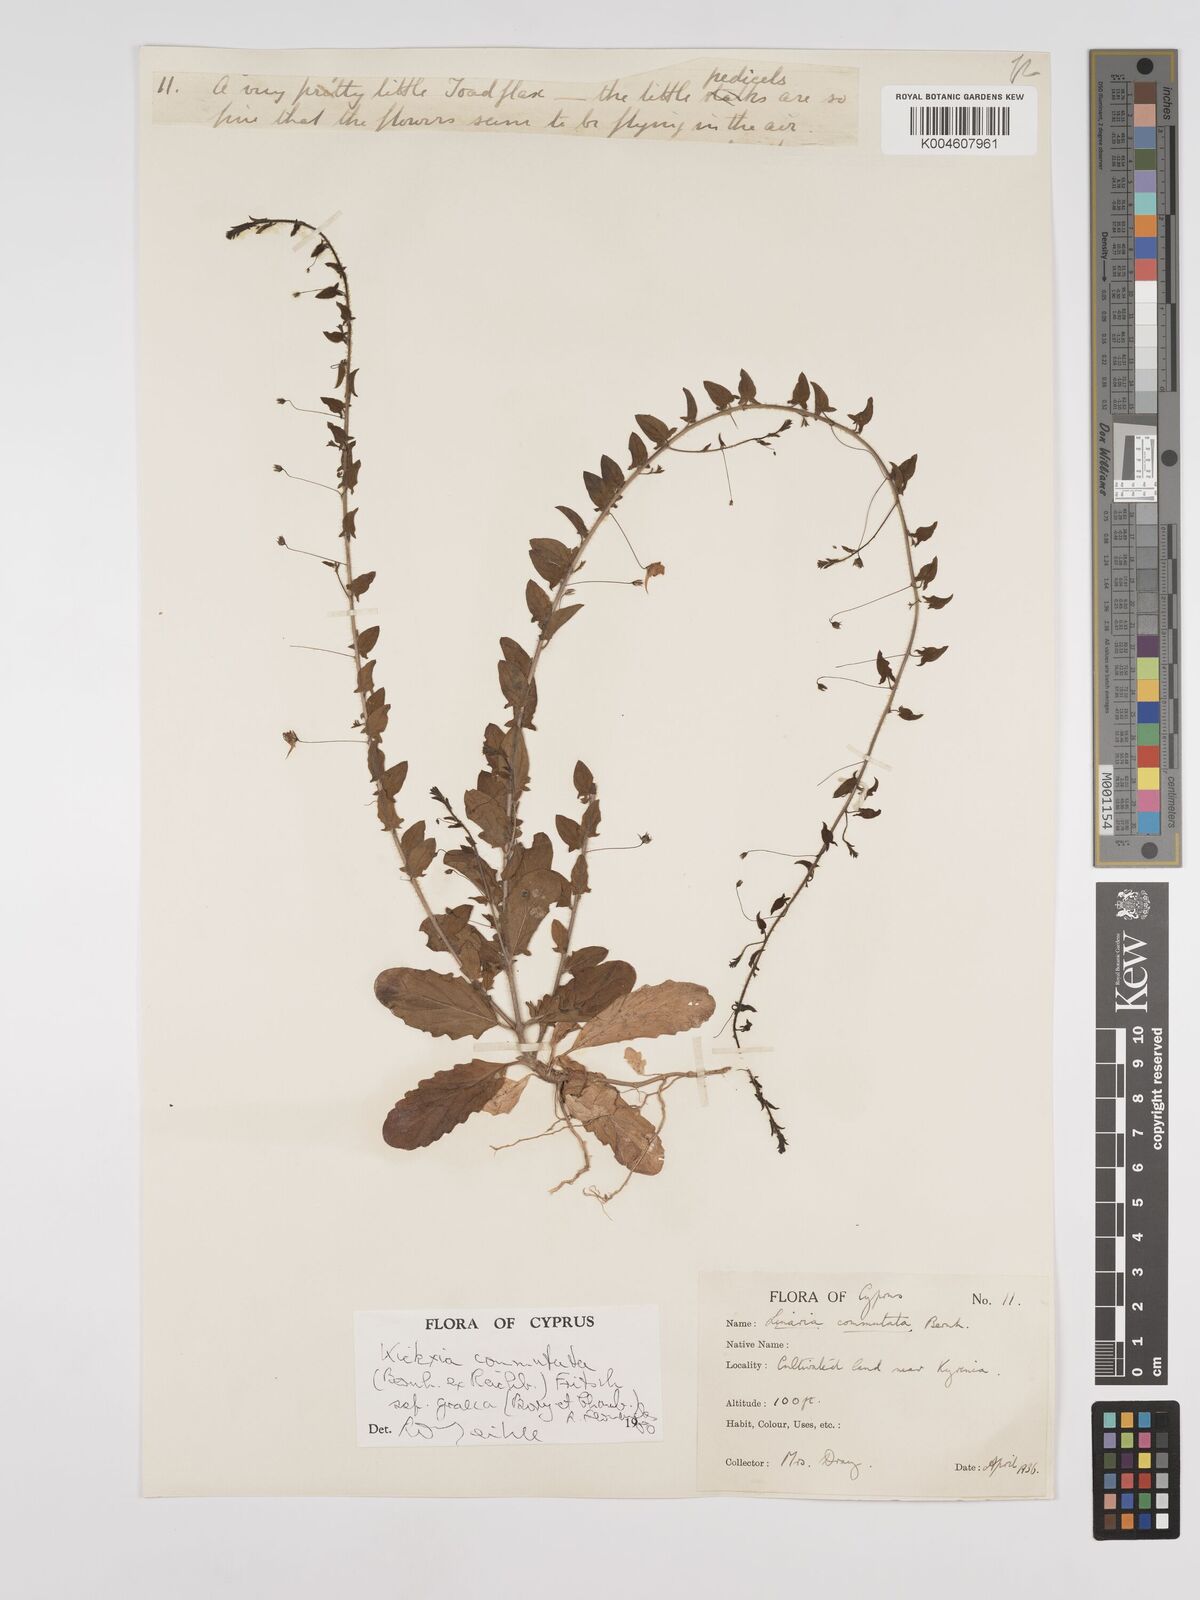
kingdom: Plantae
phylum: Tracheophyta
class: Magnoliopsida
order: Lamiales
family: Plantaginaceae
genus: Kickxia
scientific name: Kickxia commutata
